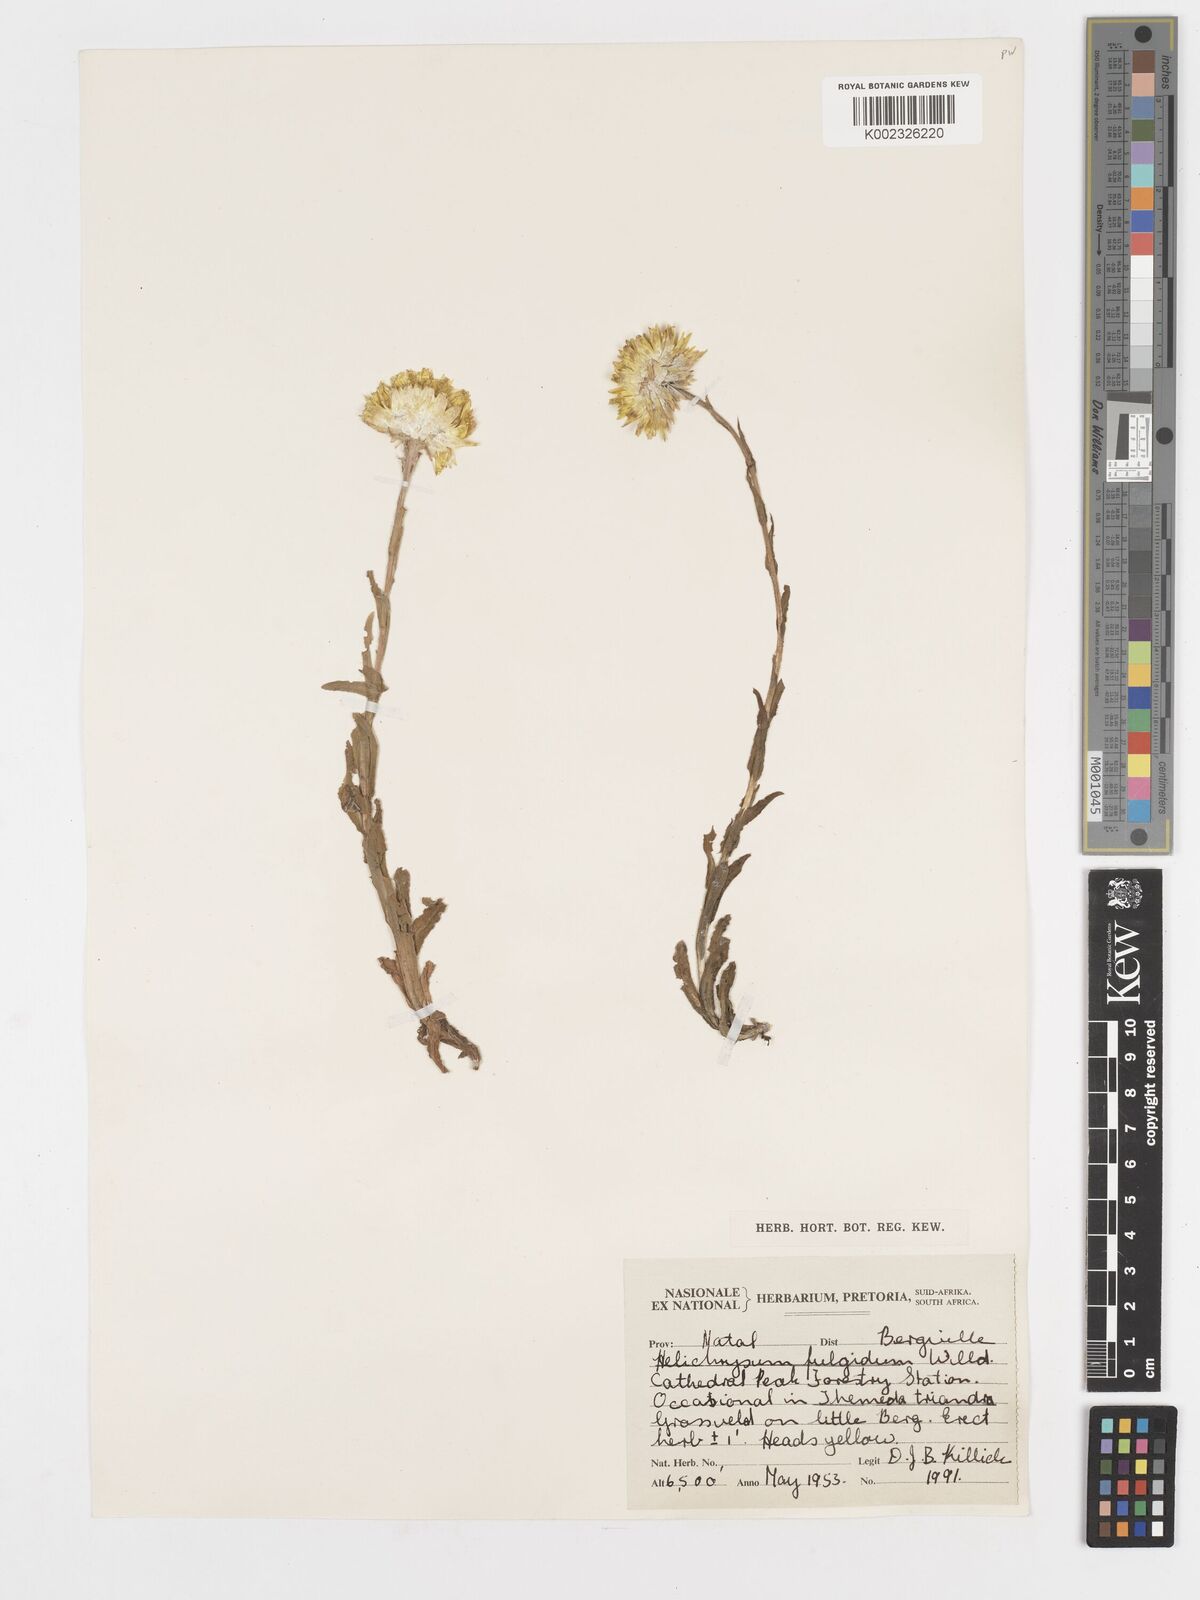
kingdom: Plantae
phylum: Tracheophyta
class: Magnoliopsida
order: Asterales
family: Asteraceae
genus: Helichrysum
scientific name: Helichrysum aureum
